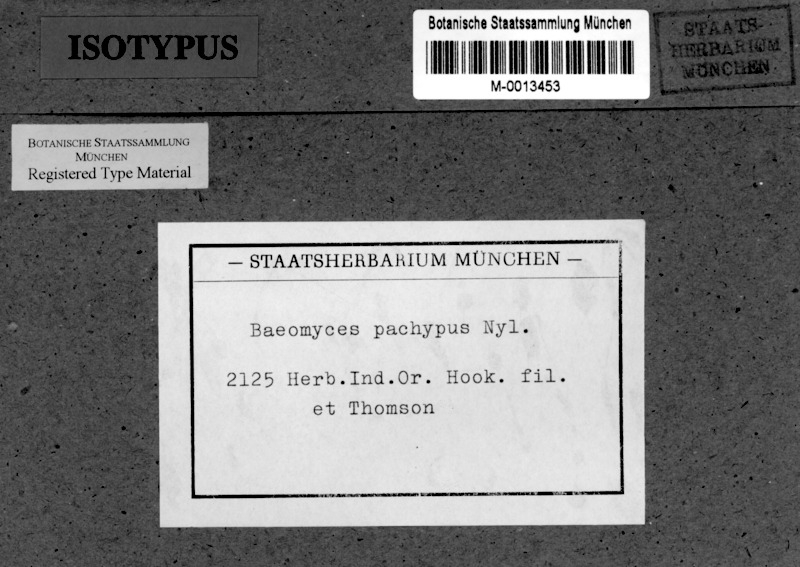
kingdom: Fungi
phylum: Ascomycota
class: Lecanoromycetes
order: Baeomycetales
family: Baeomycetaceae
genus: Baeomyces
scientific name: Baeomyces pachypus
